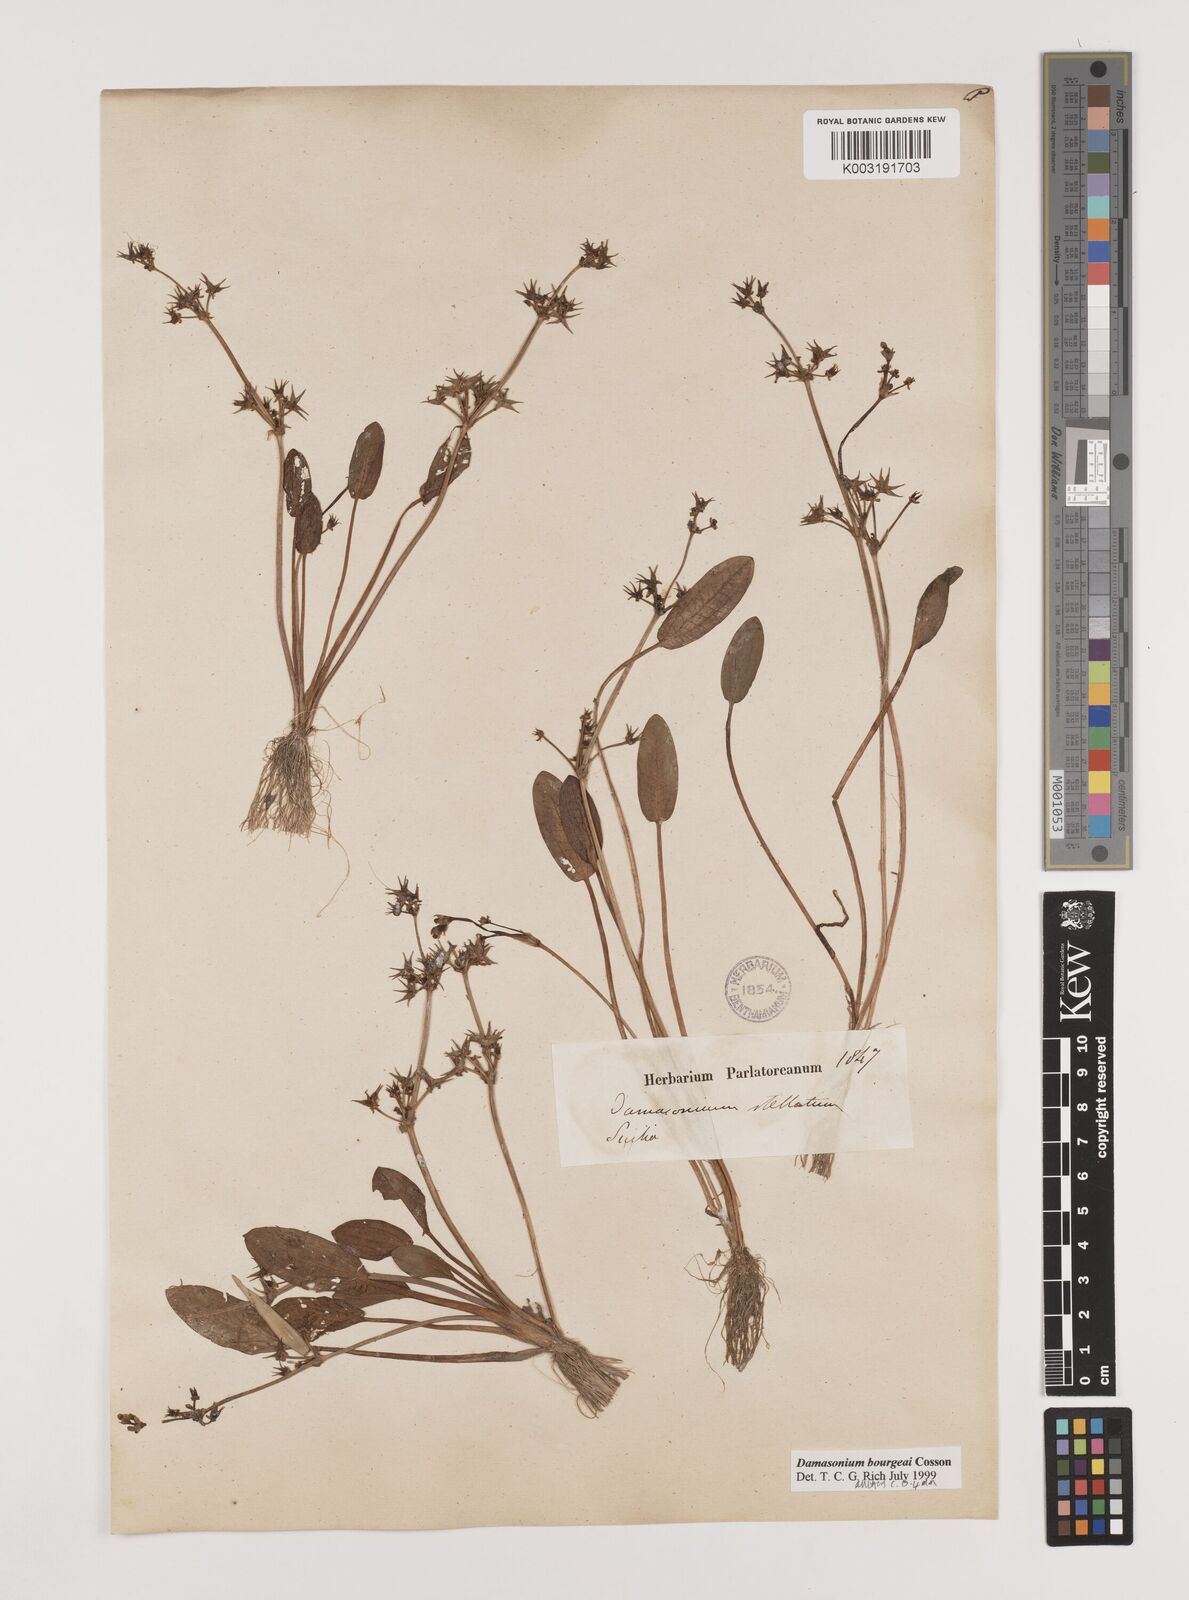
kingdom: Plantae
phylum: Tracheophyta
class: Liliopsida
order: Alismatales
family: Alismataceae
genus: Damasonium
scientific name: Damasonium bourgaei
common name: Starfruit
